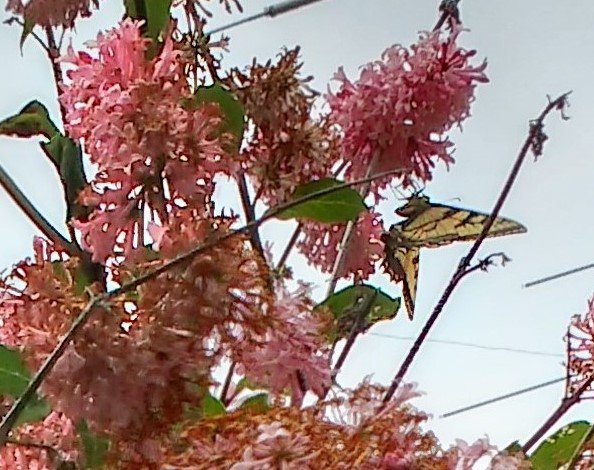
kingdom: Animalia
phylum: Arthropoda
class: Insecta
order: Lepidoptera
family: Papilionidae
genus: Pterourus
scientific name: Pterourus glaucus
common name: Eastern Tiger Swallowtail
